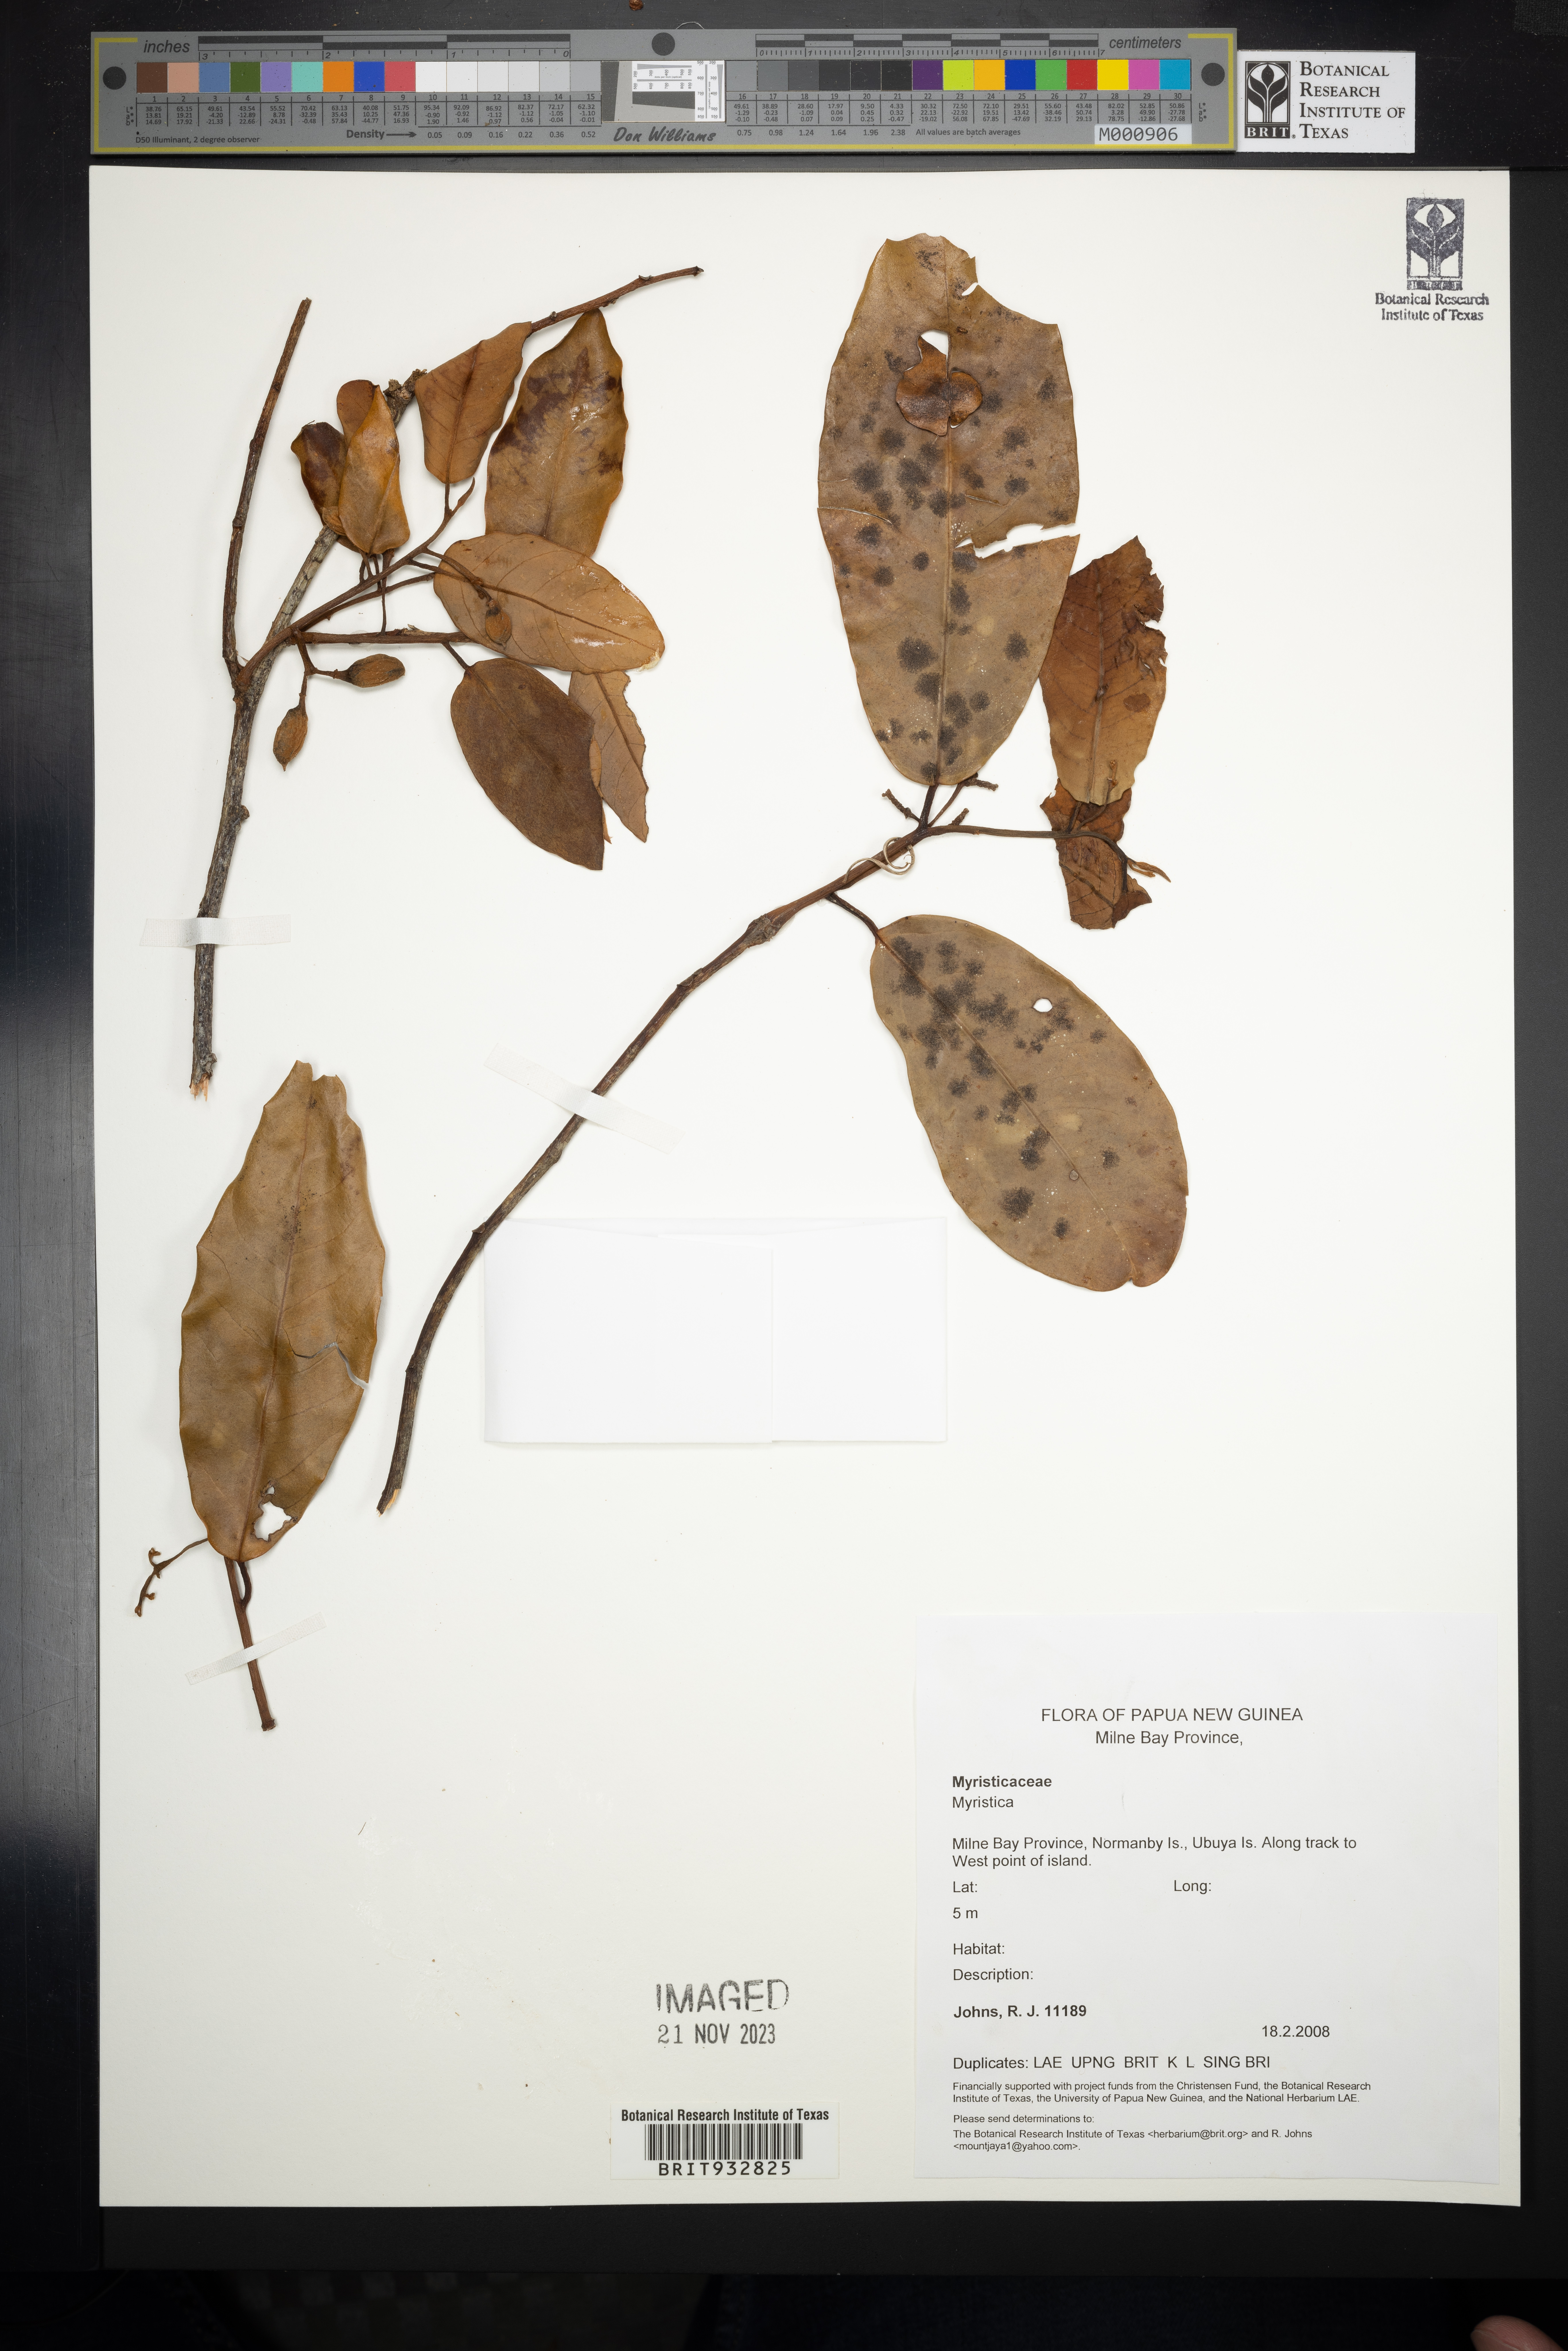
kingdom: Plantae
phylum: Tracheophyta
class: Magnoliopsida
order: Magnoliales
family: Myristicaceae
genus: Myristica
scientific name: Myristica
